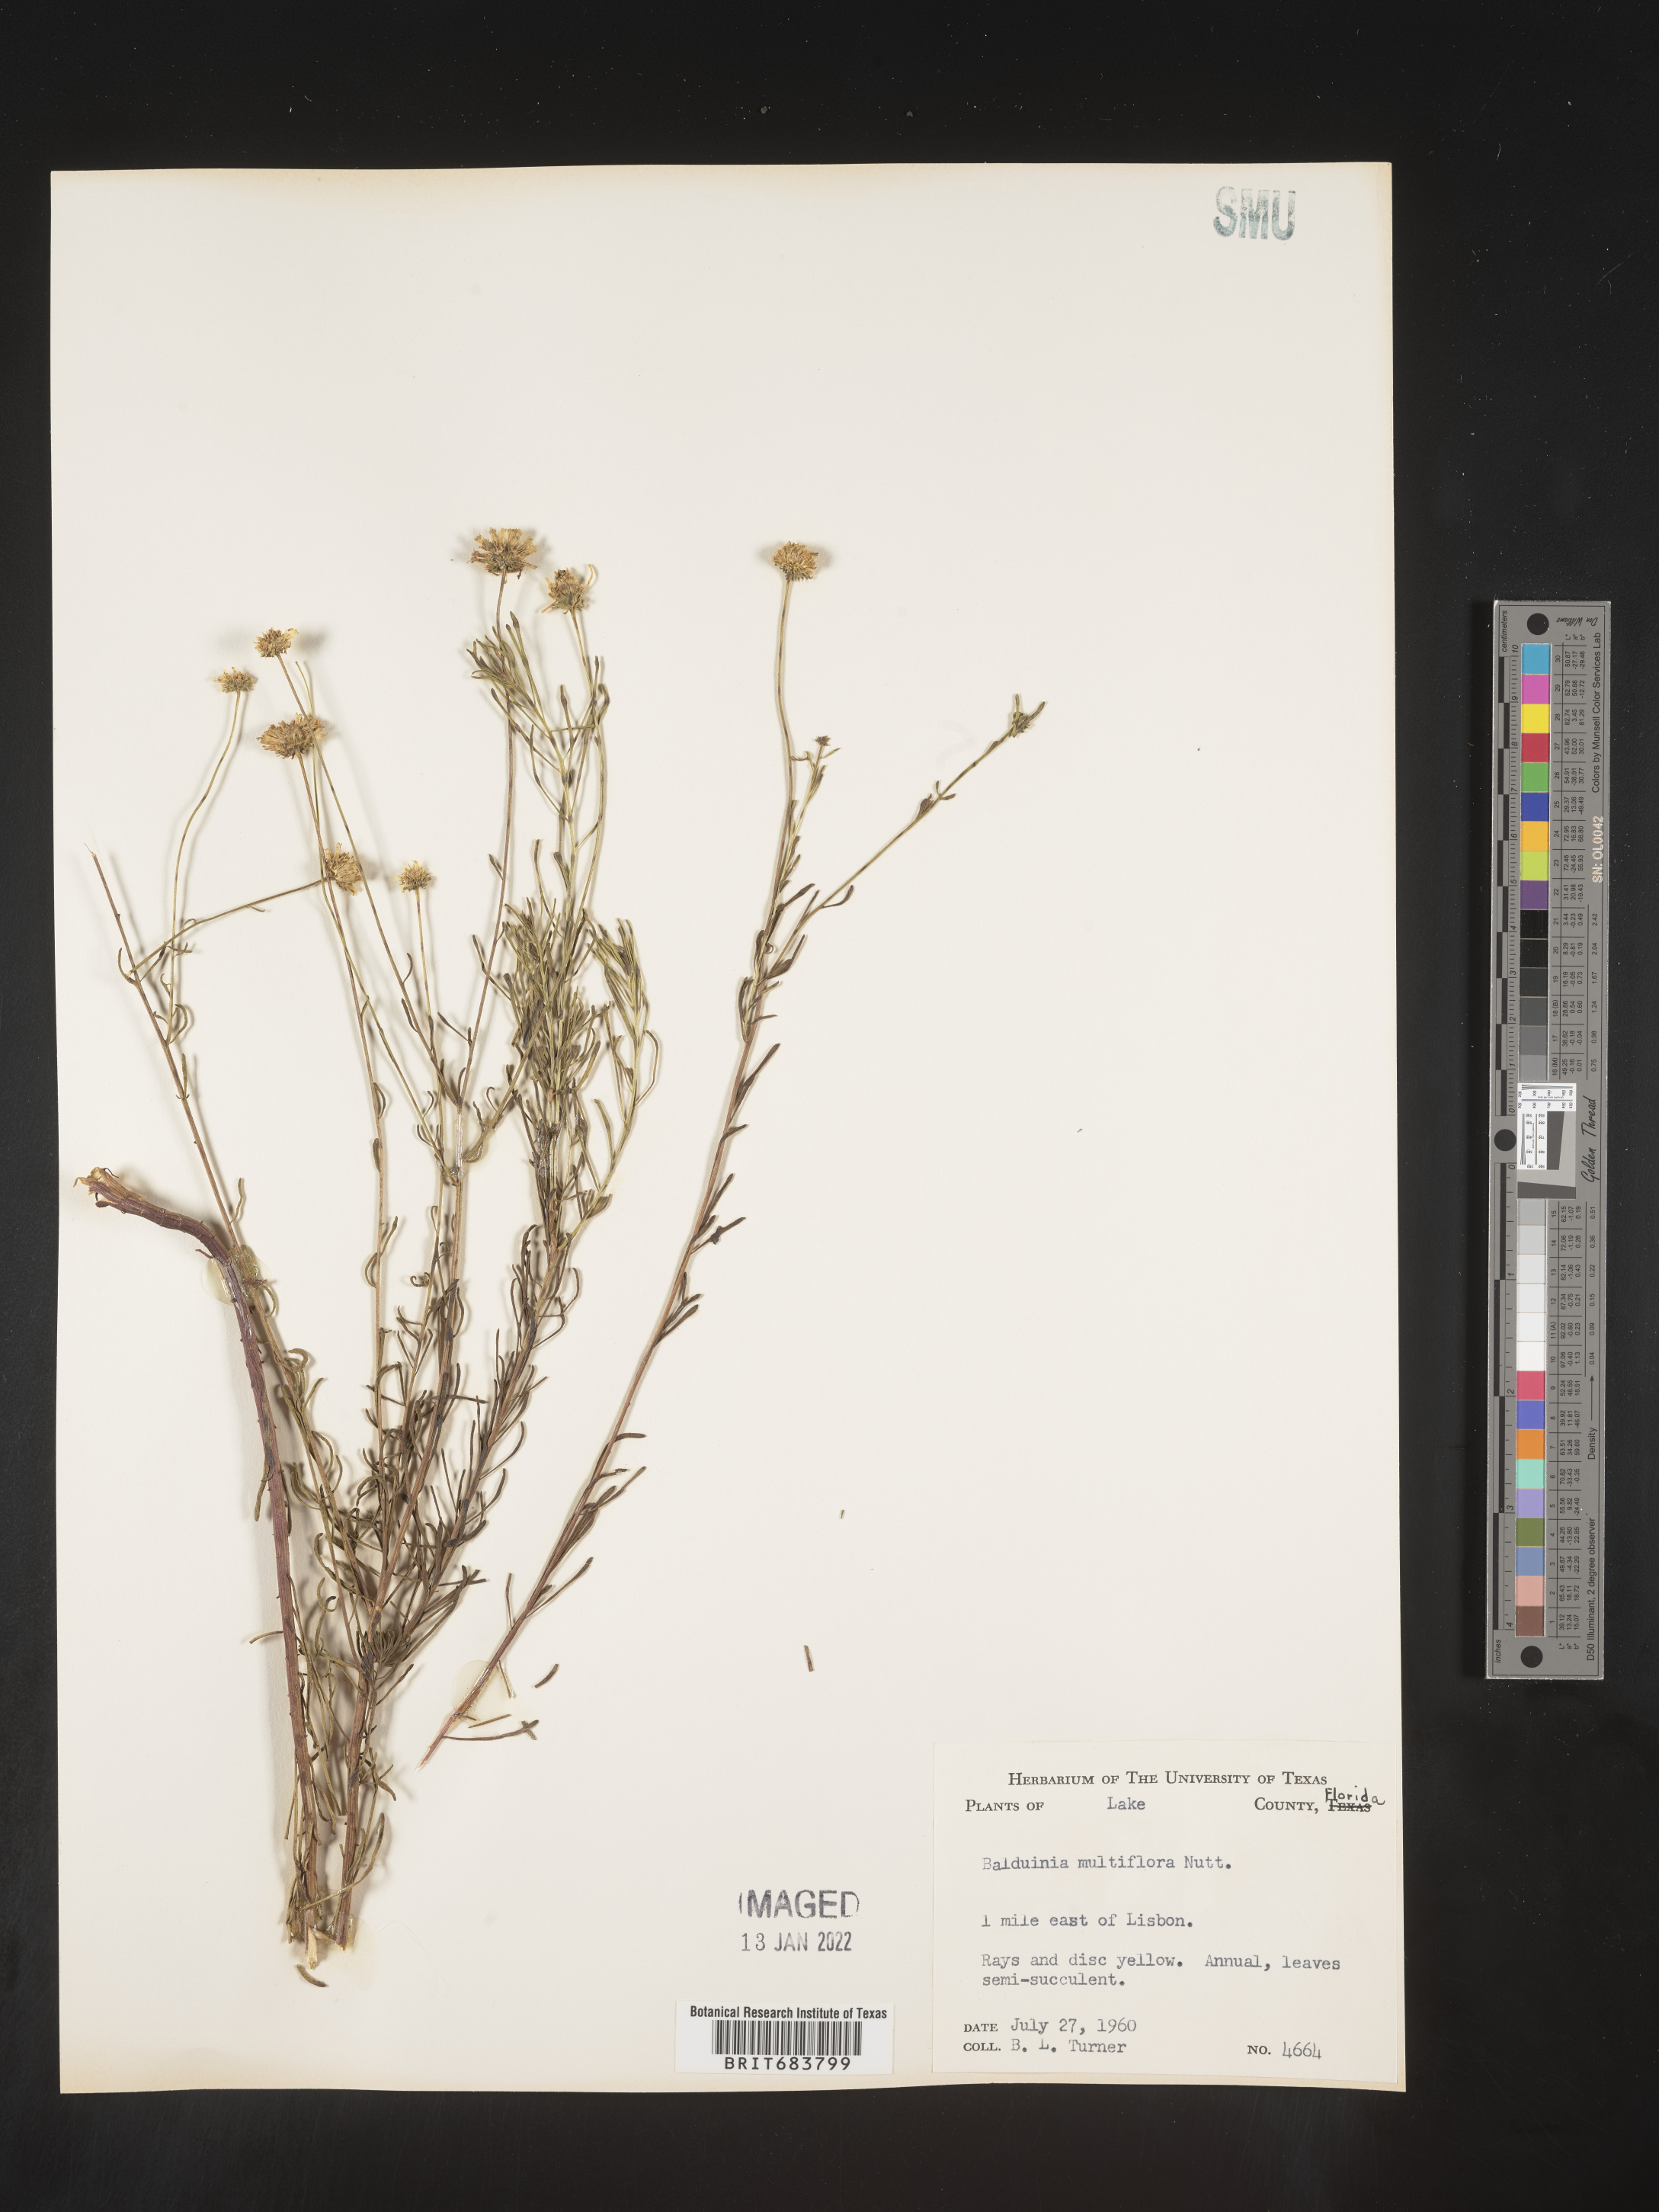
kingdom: Plantae
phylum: Tracheophyta
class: Magnoliopsida
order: Asterales
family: Asteraceae
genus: Balduina
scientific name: Balduina angustifolia
